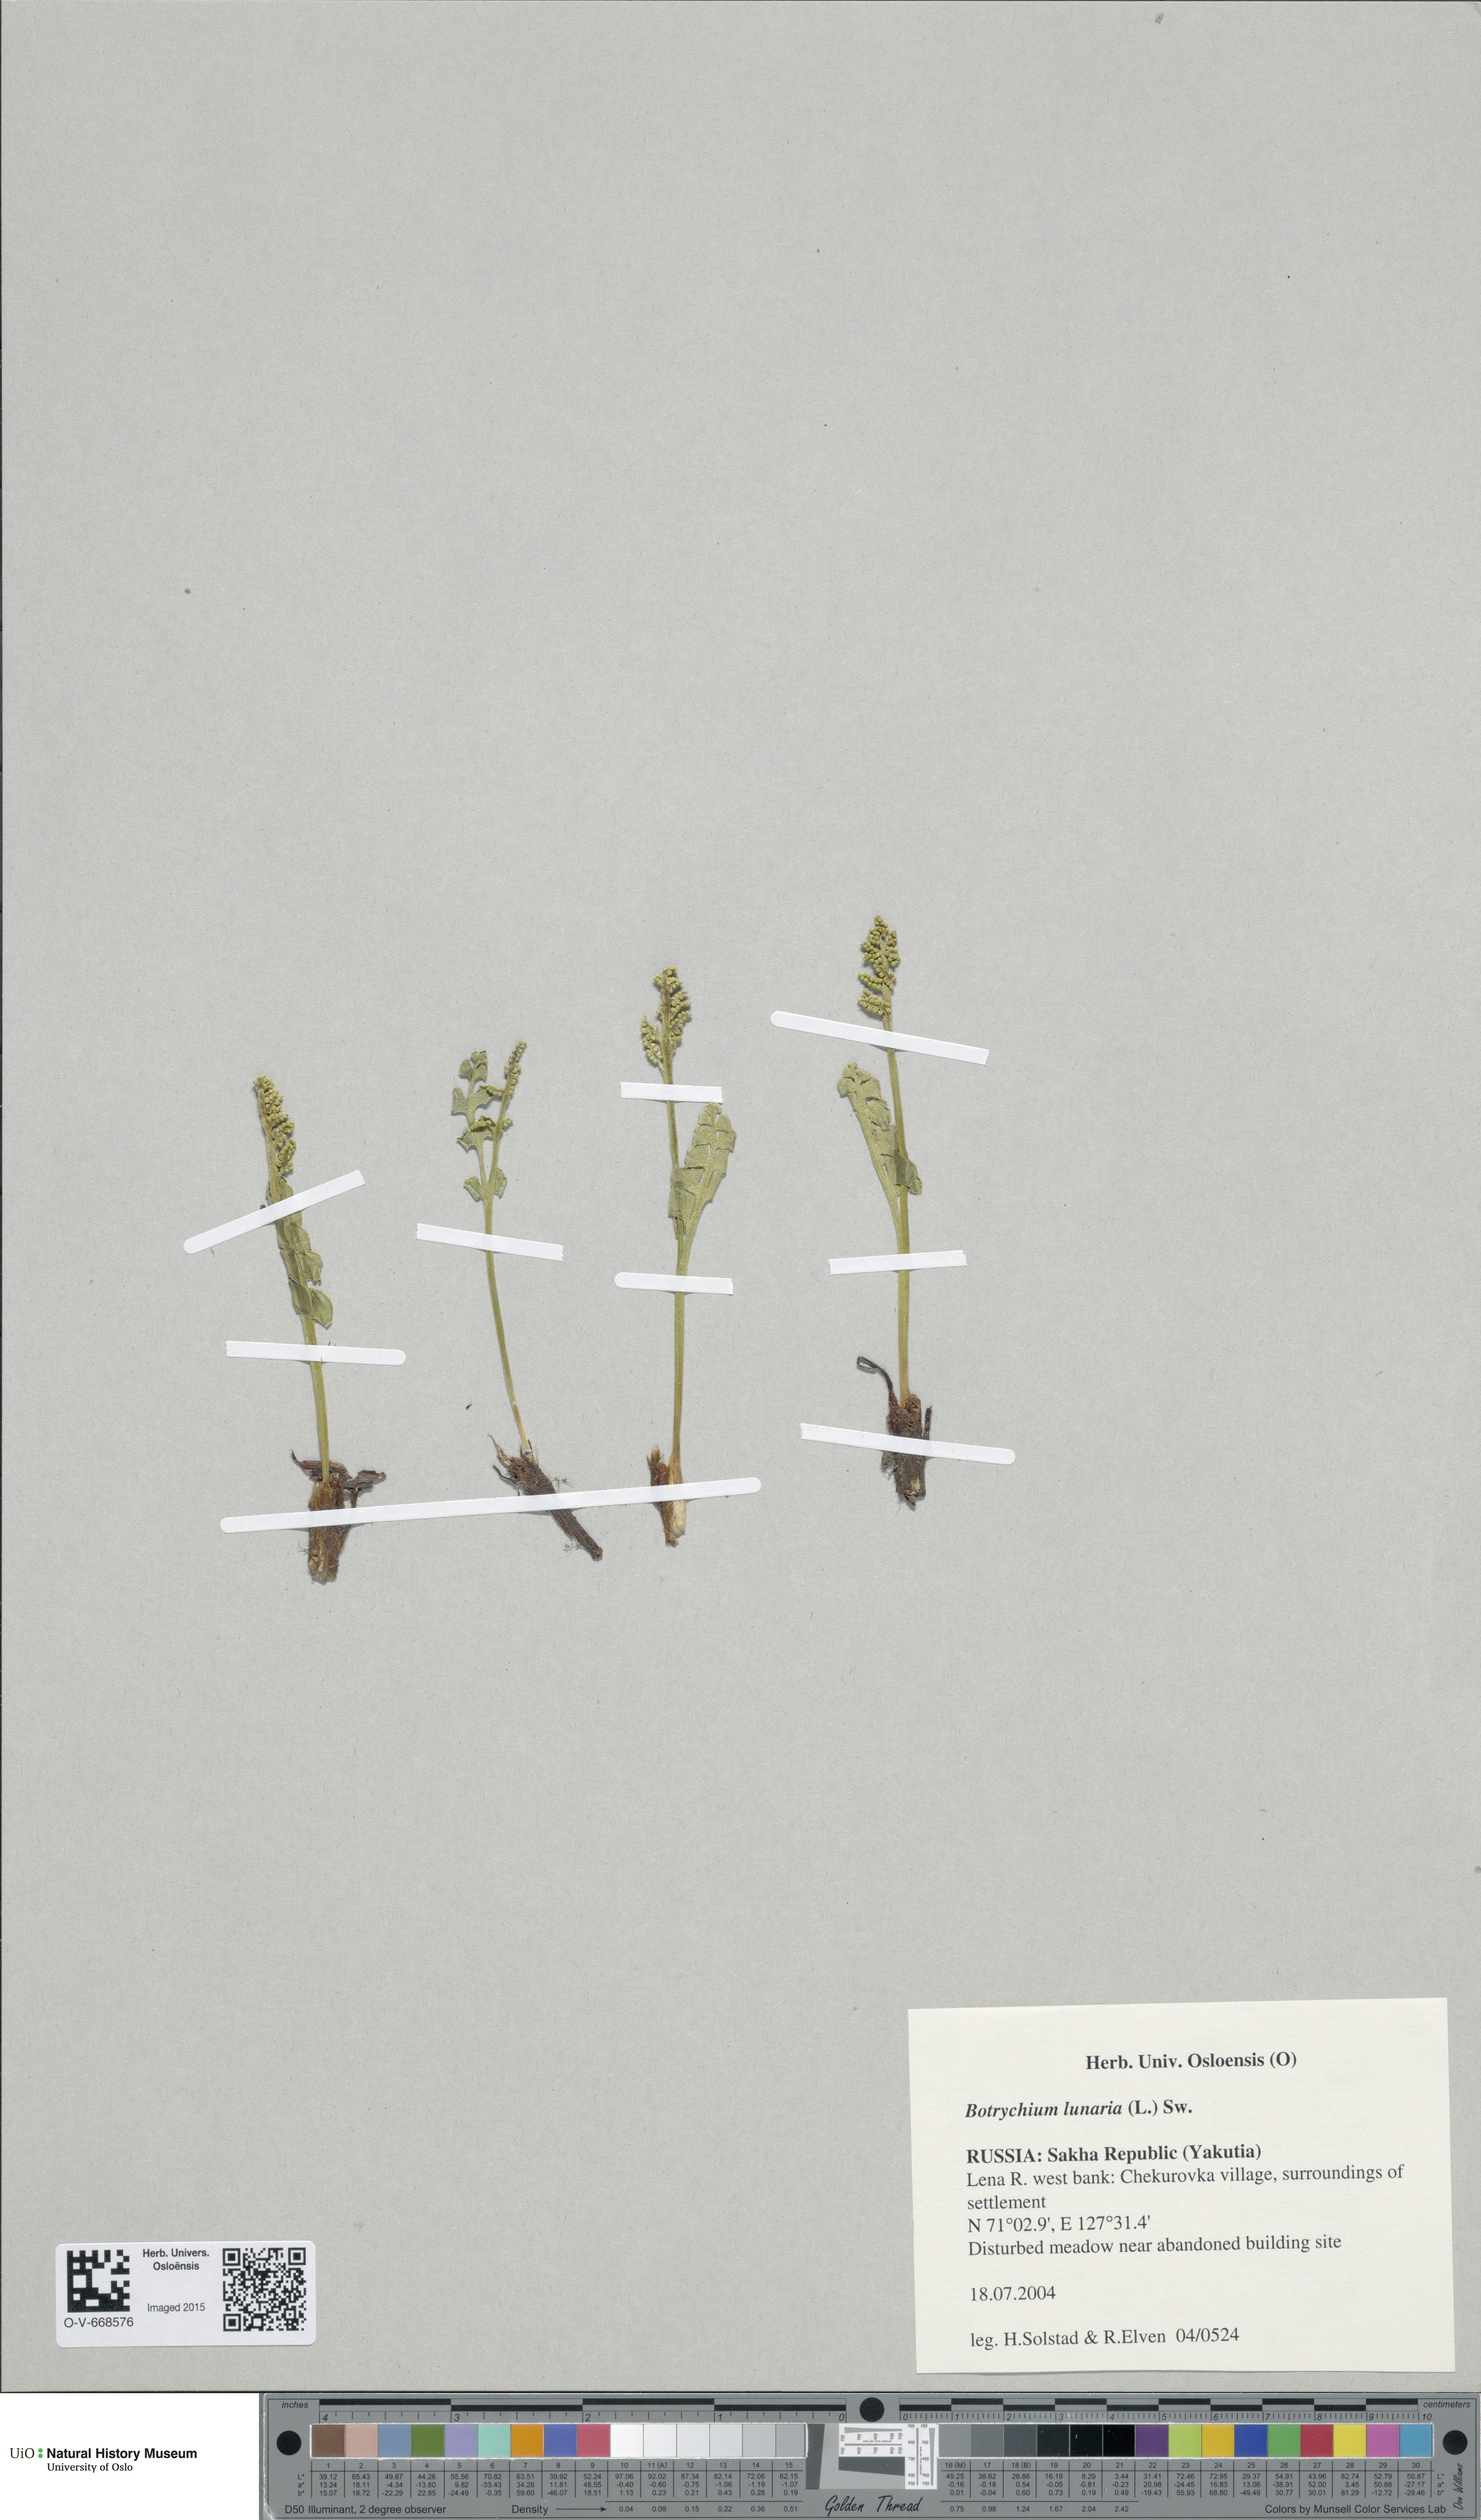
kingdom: Plantae
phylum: Tracheophyta
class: Polypodiopsida
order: Ophioglossales
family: Ophioglossaceae
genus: Botrychium
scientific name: Botrychium lunaria
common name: Moonwort
